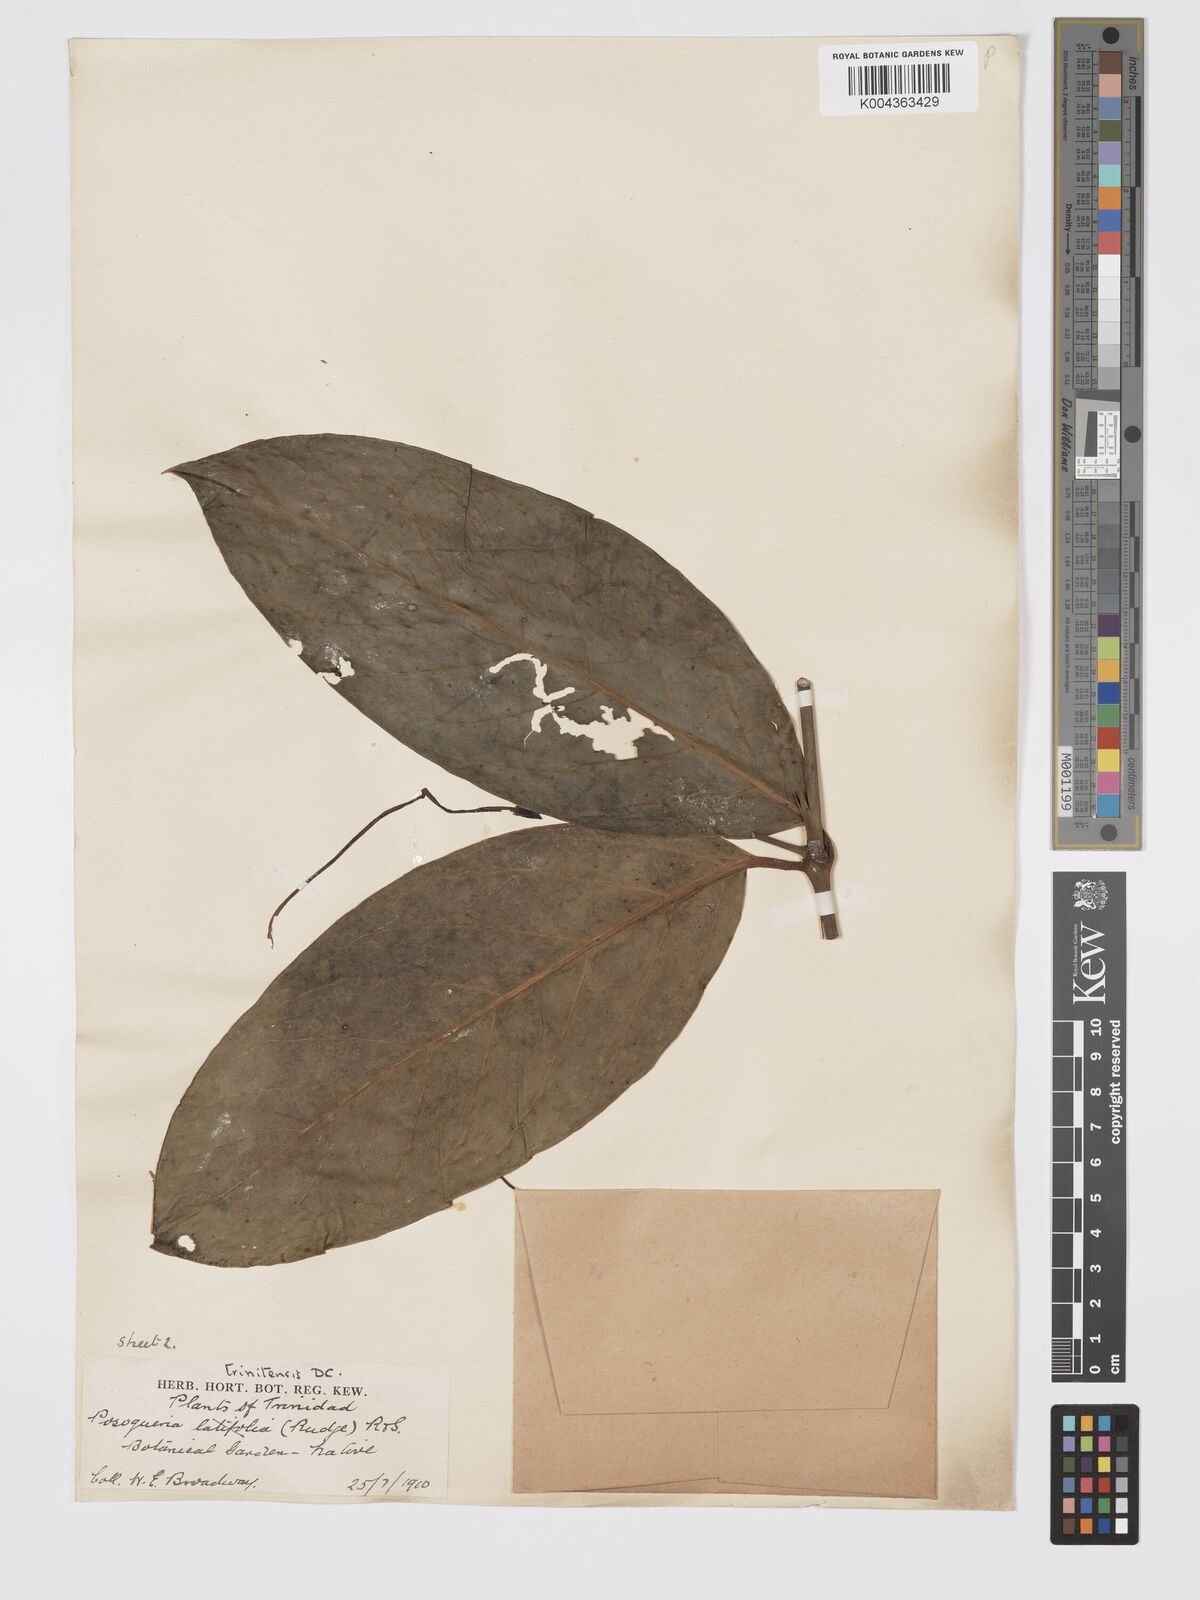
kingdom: Plantae
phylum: Tracheophyta
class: Magnoliopsida
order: Gentianales
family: Rubiaceae
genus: Posoqueria
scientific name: Posoqueria trinitatis
